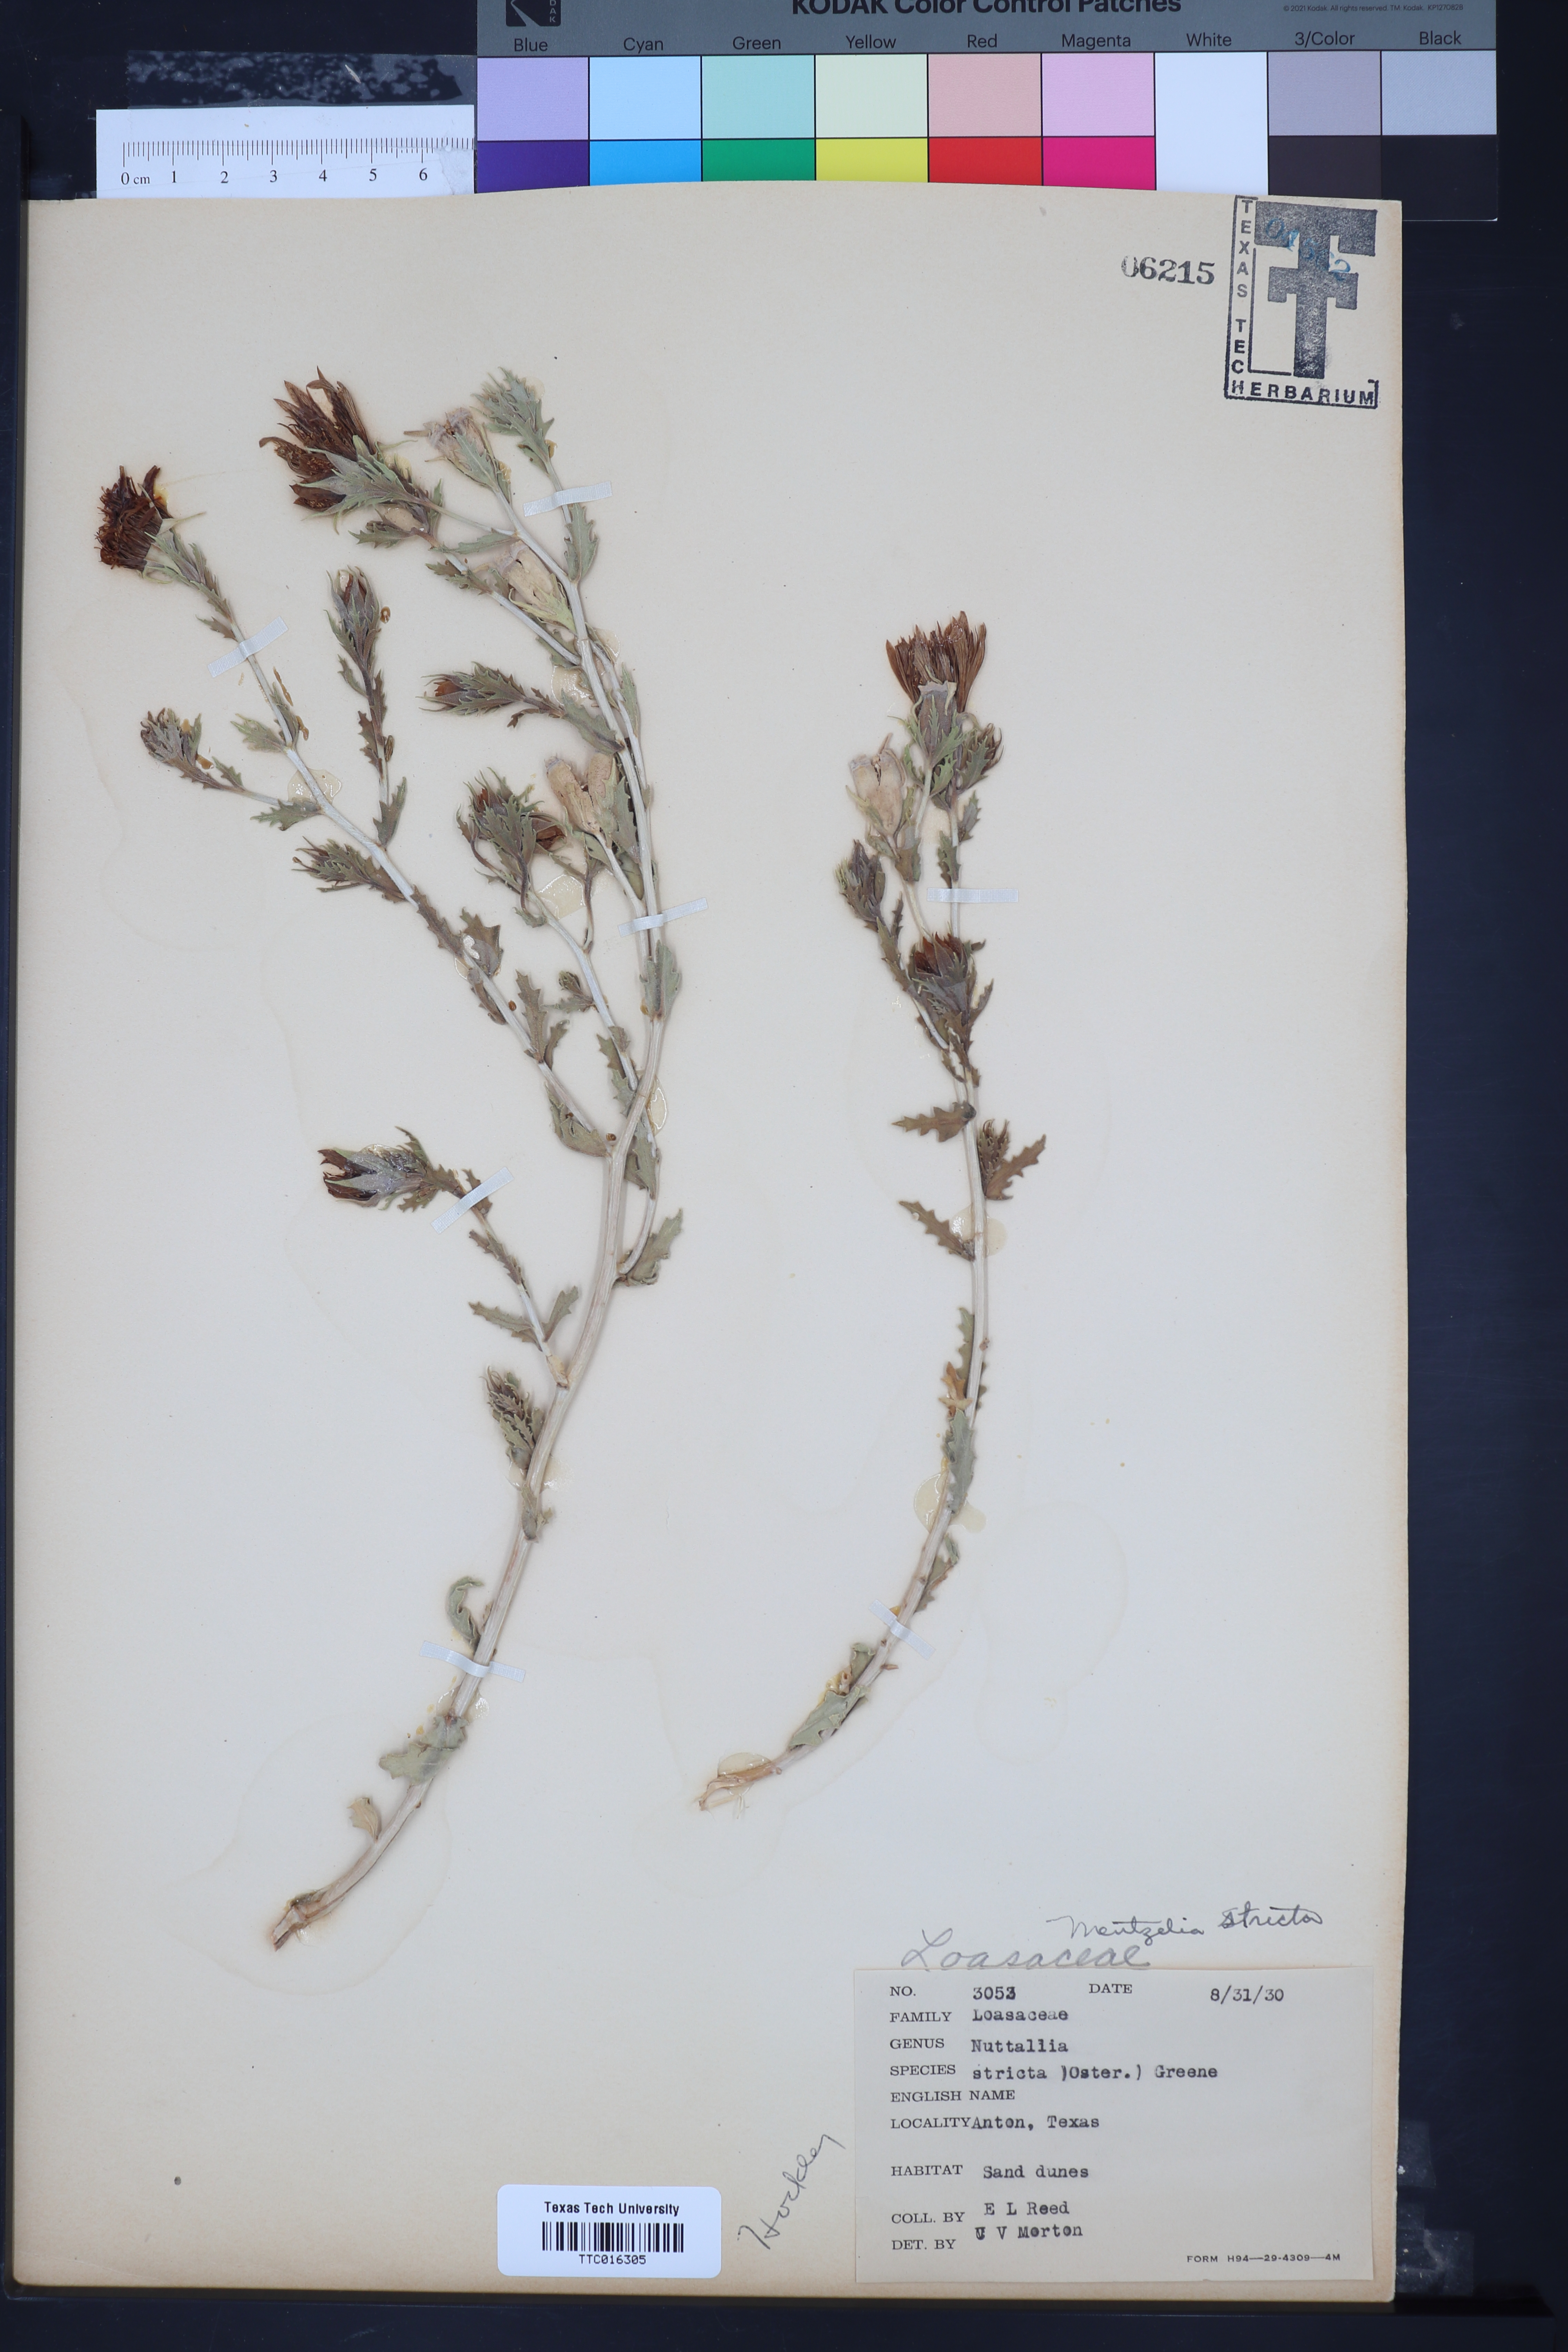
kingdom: Plantae
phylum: Tracheophyta
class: Magnoliopsida
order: Cornales
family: Loasaceae
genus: Mentzelia
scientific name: Mentzelia nuda
